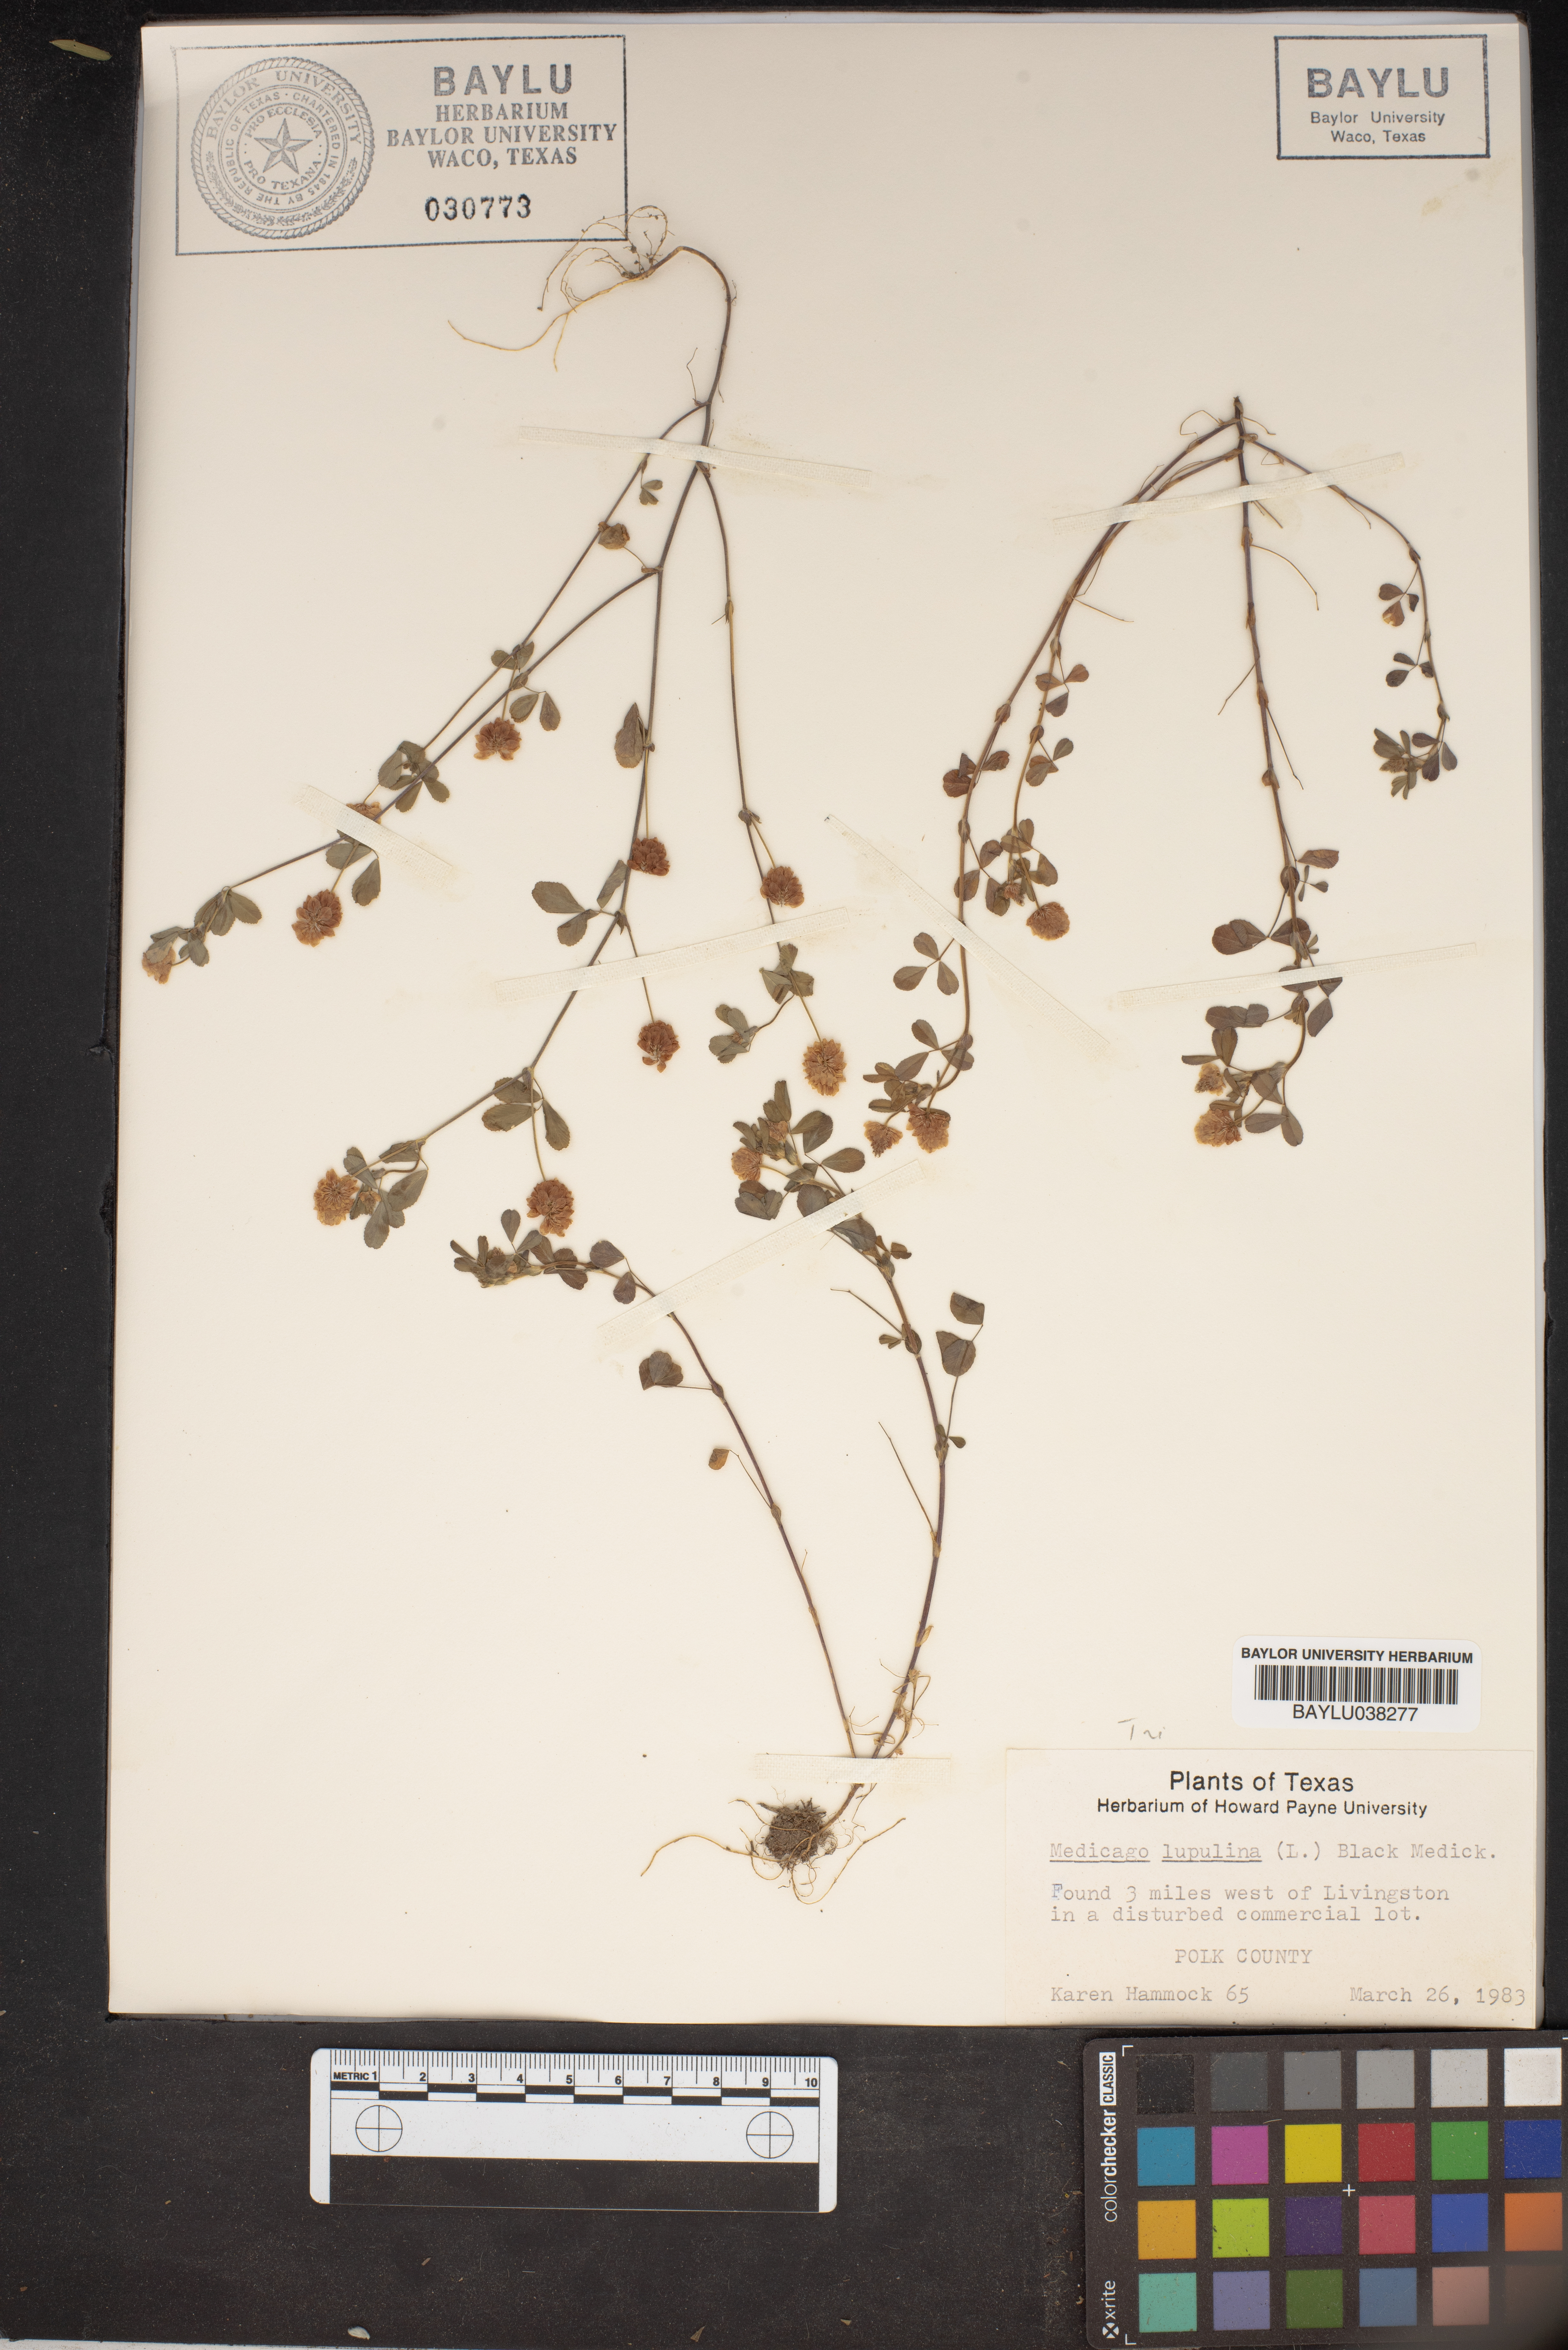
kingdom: Plantae
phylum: Tracheophyta
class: Magnoliopsida
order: Fabales
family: Fabaceae
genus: Medicago
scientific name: Medicago lupulina
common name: Black medick
